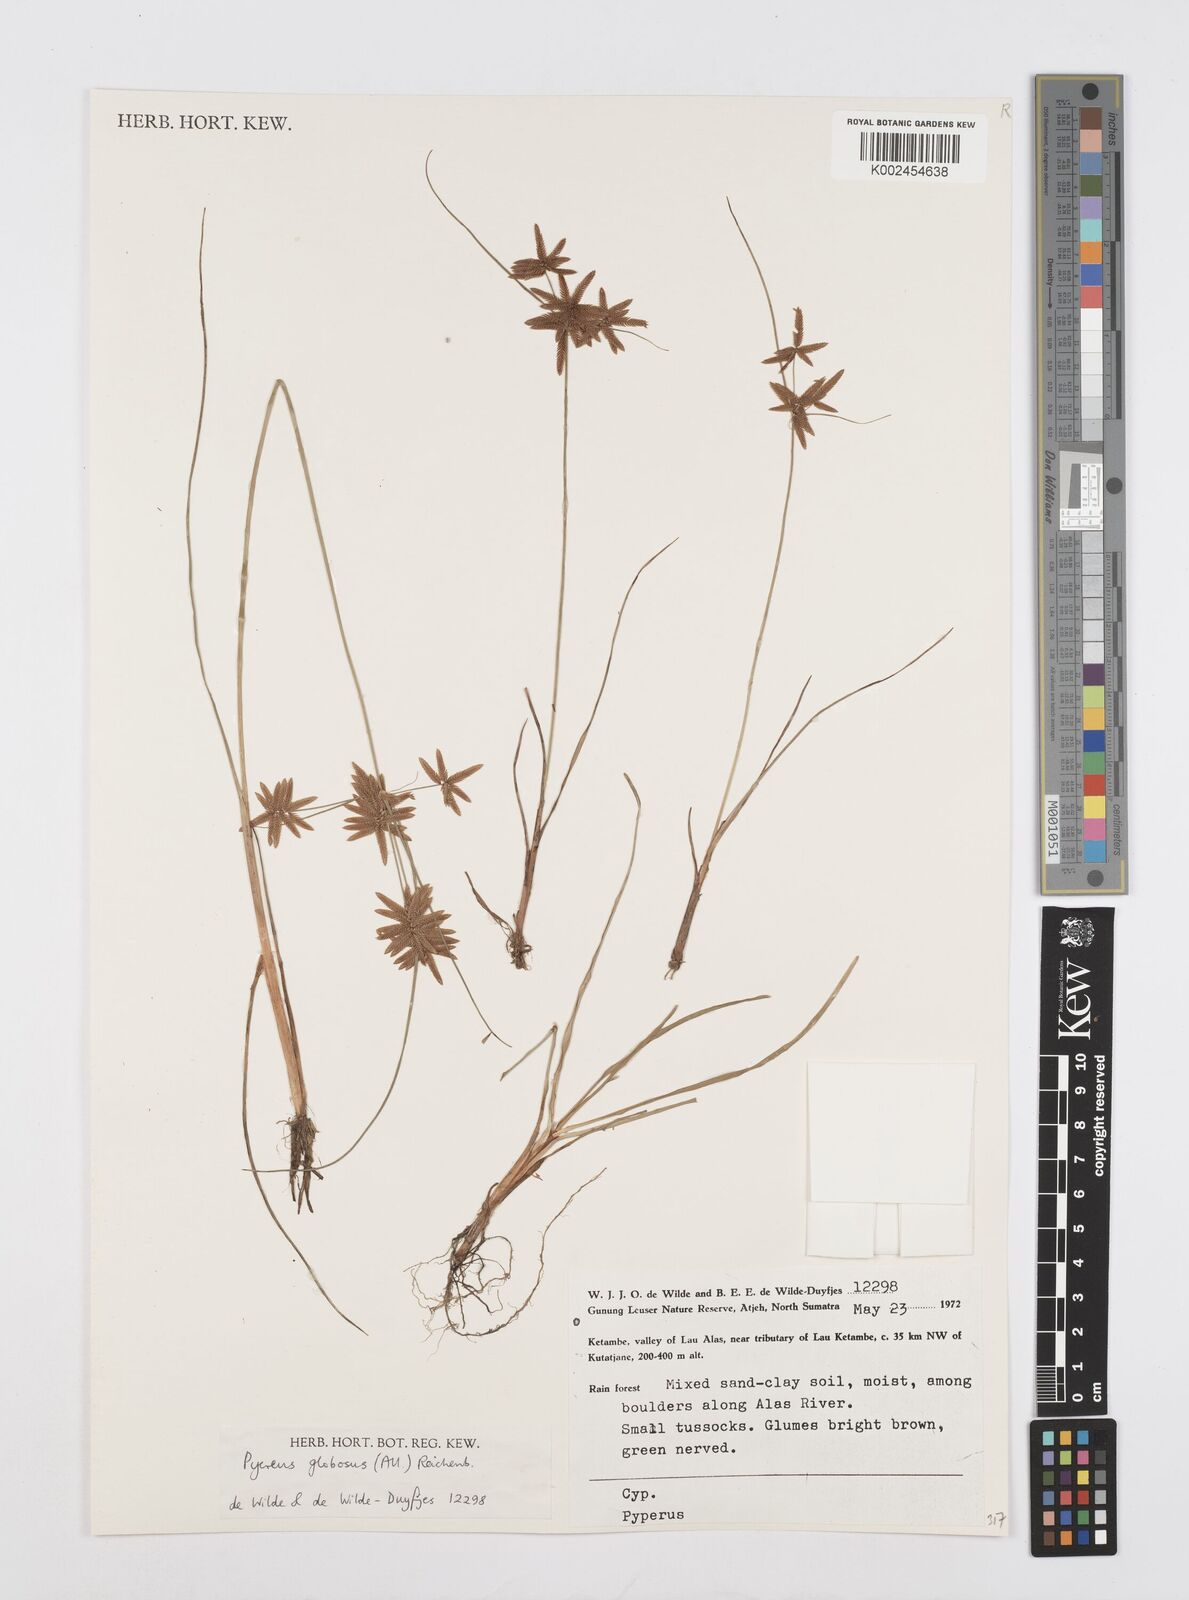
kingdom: Plantae
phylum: Tracheophyta
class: Liliopsida
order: Poales
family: Cyperaceae
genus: Cyperus
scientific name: Cyperus flavidus
